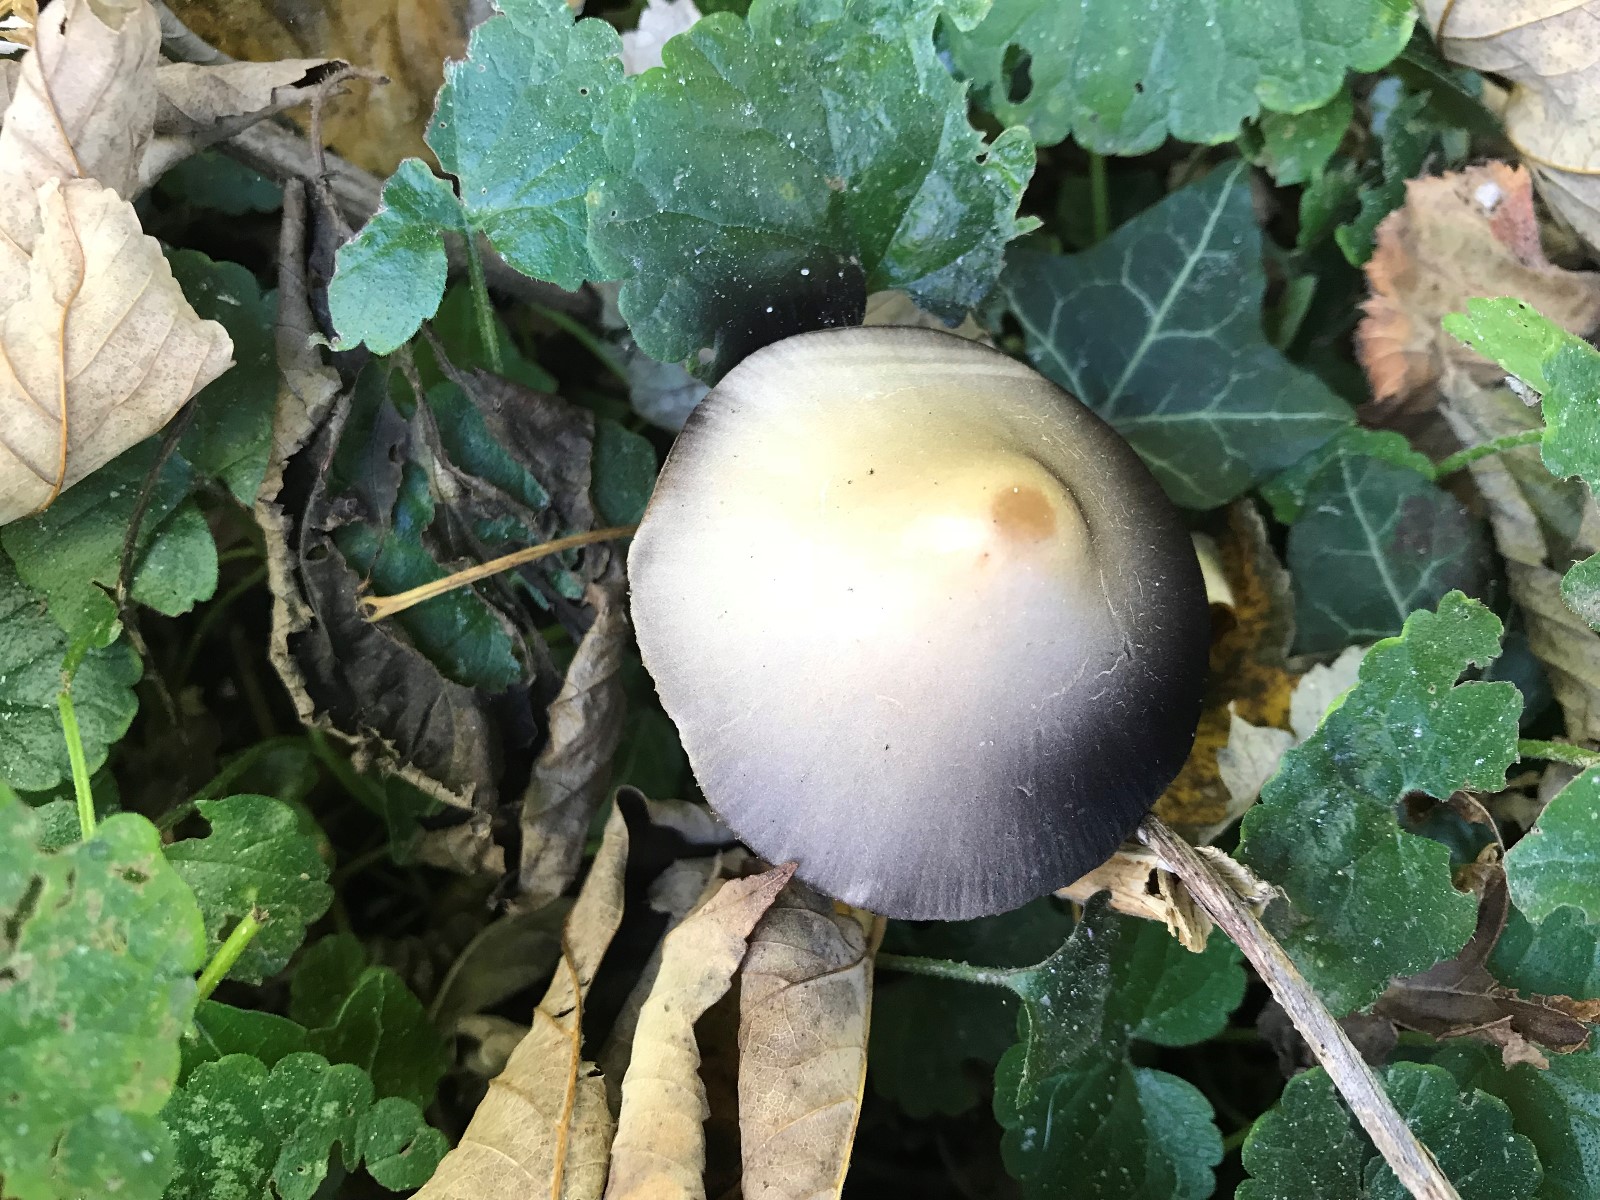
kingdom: Fungi
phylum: Basidiomycota
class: Agaricomycetes
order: Agaricales
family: Psathyrellaceae
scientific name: Psathyrellaceae
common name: mørkhatfamilien
